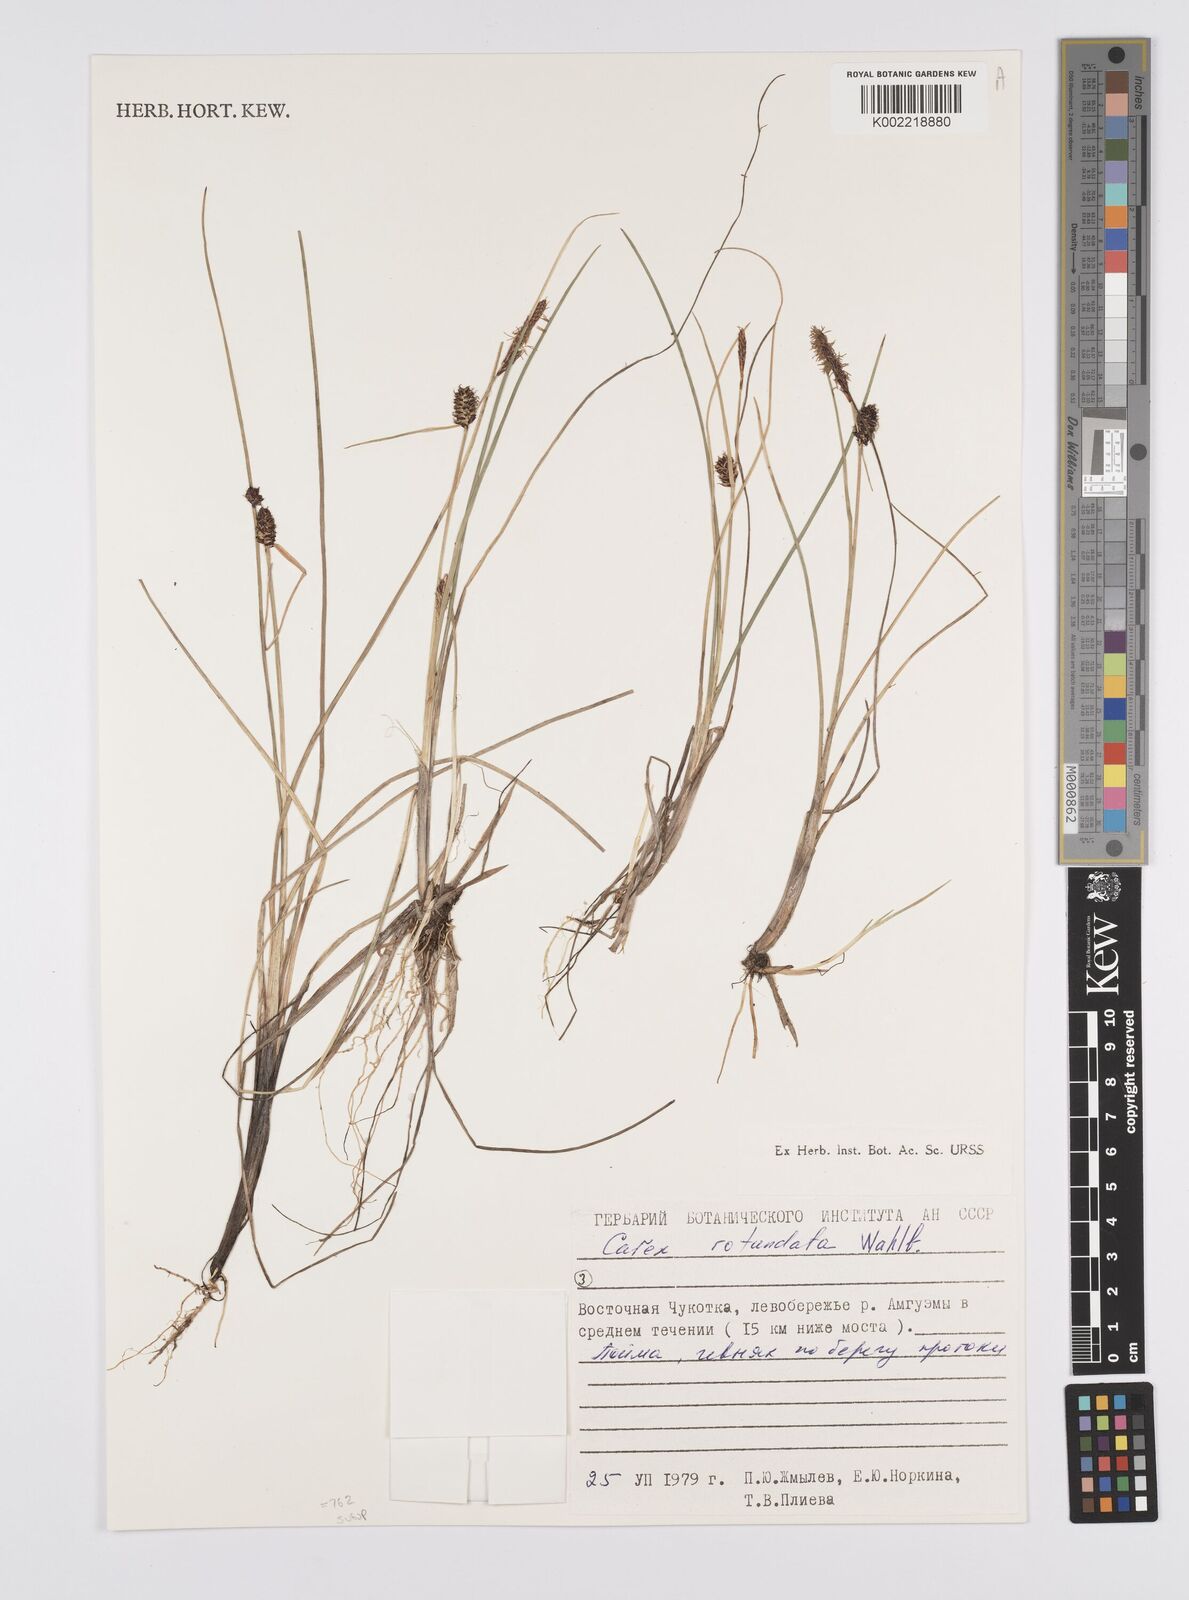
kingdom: Plantae
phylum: Tracheophyta
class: Liliopsida
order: Poales
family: Cyperaceae
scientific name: Cyperaceae
